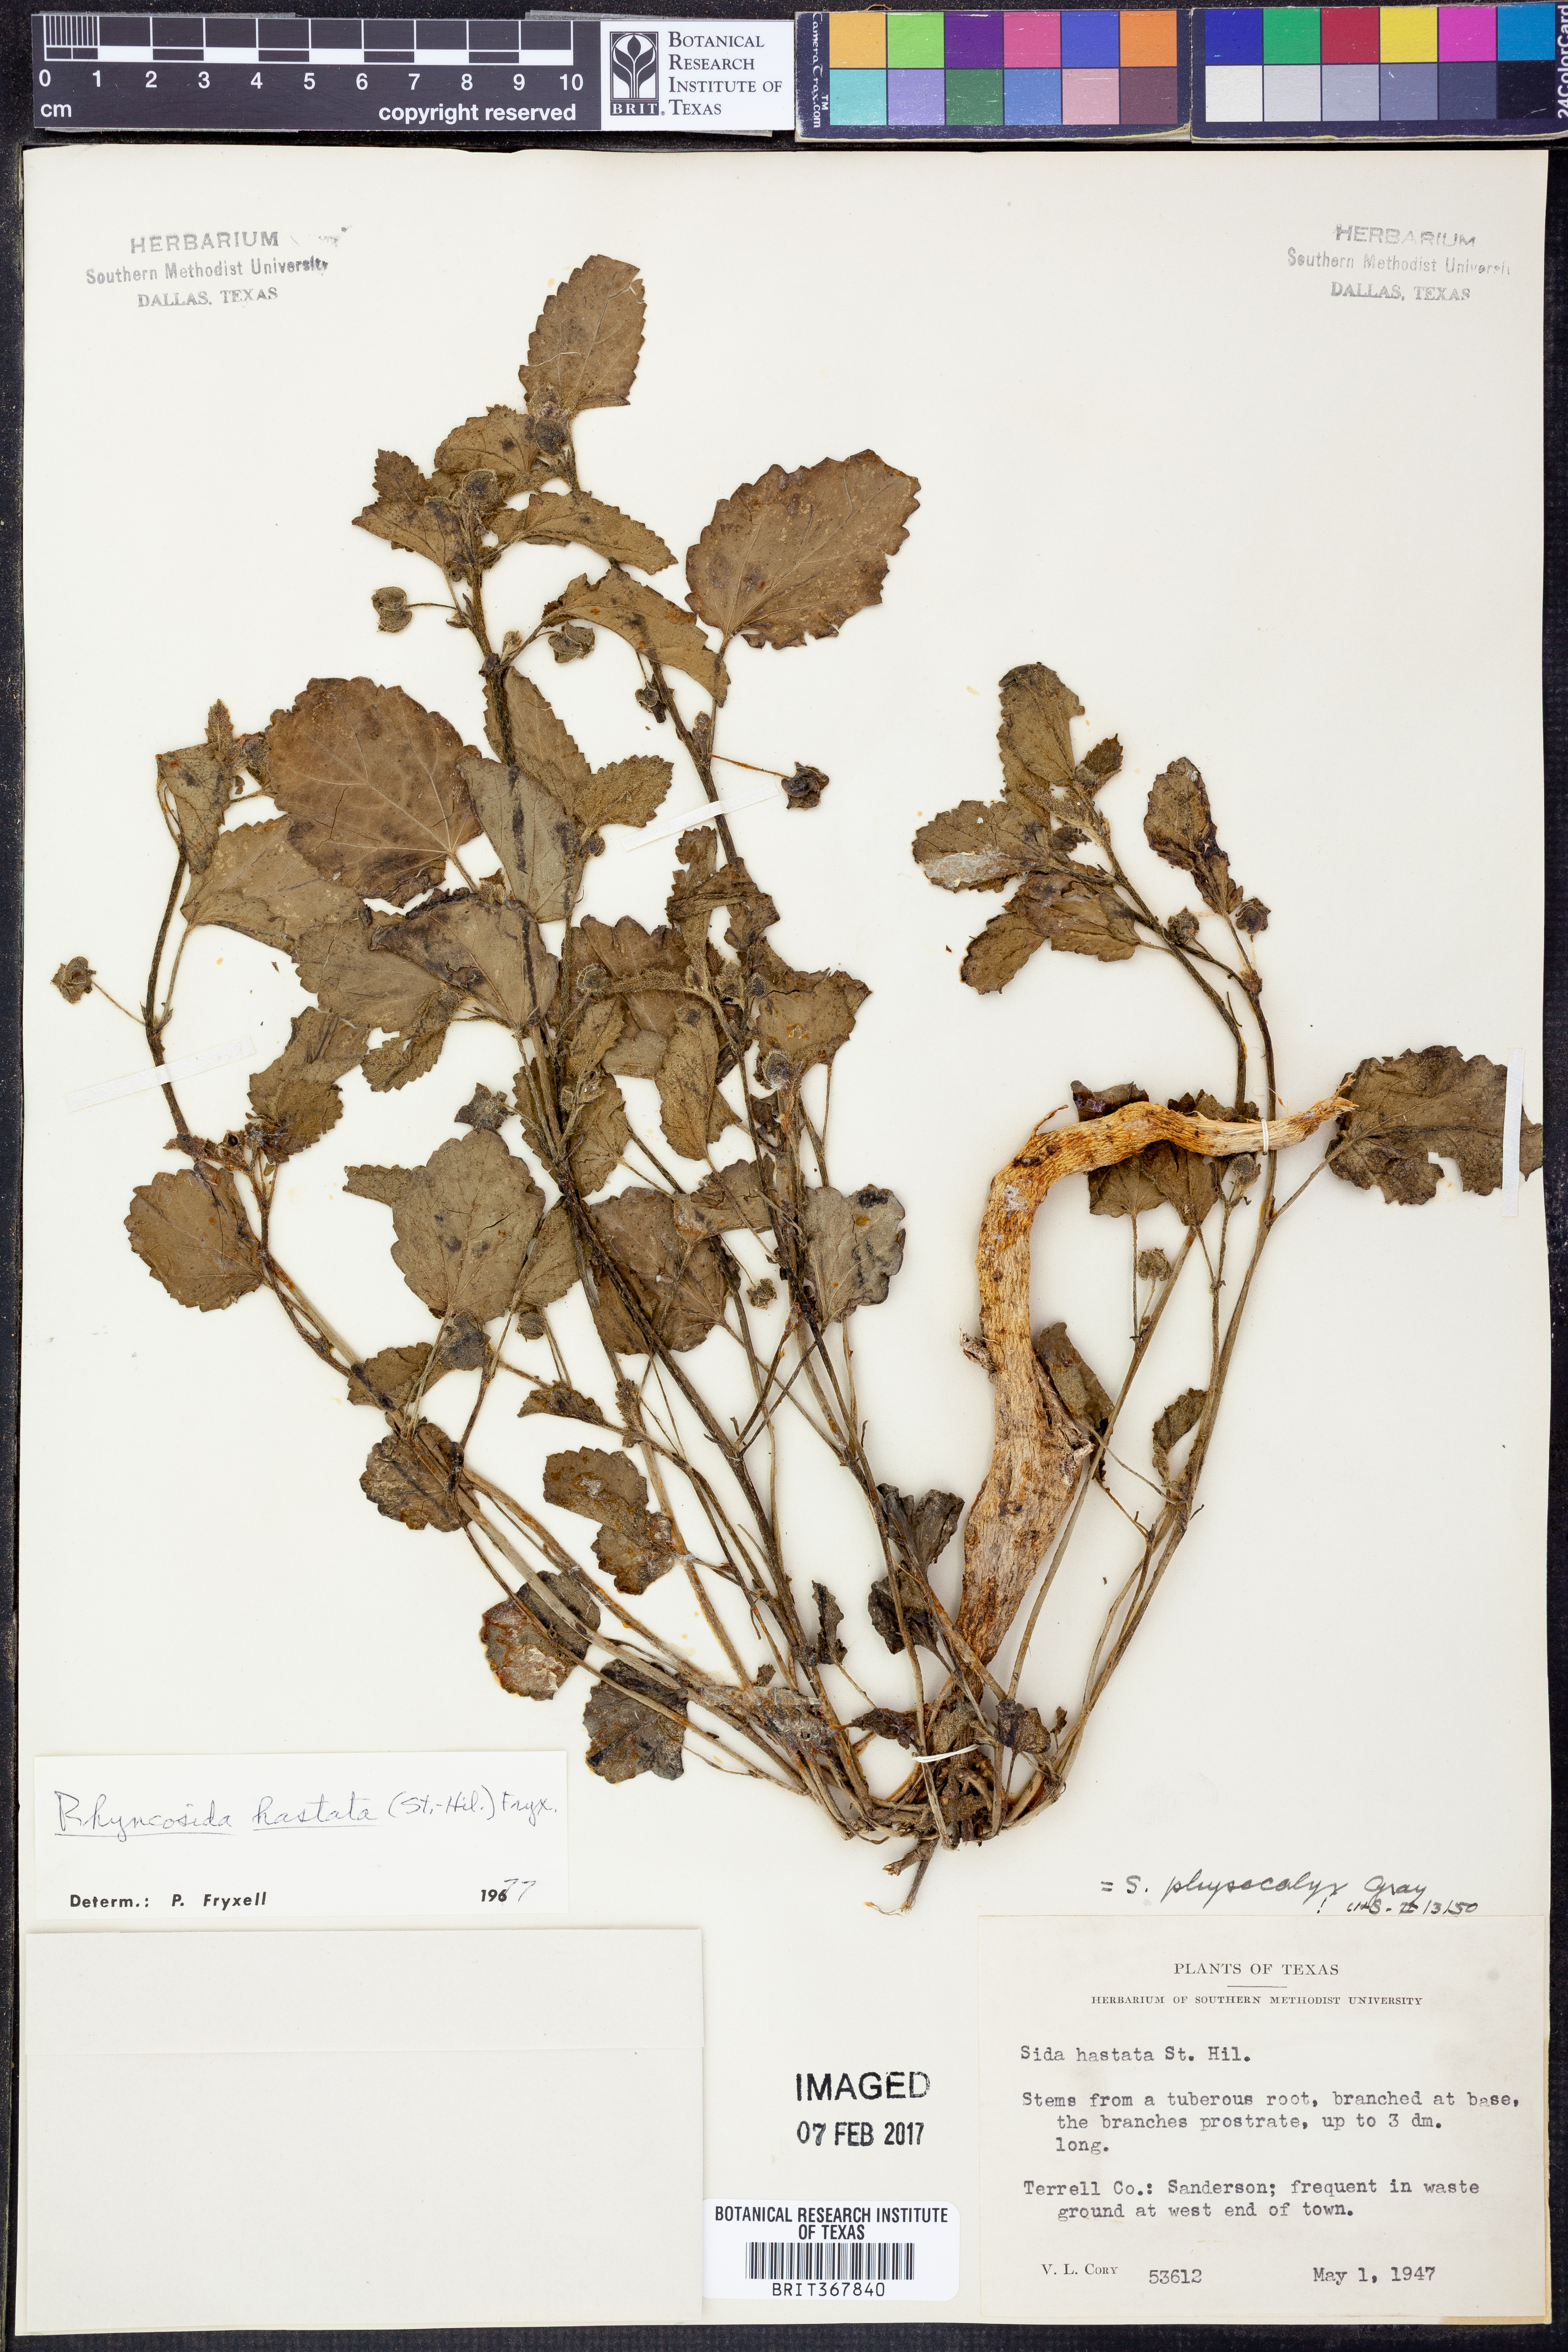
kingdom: Plantae
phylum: Tracheophyta
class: Magnoliopsida
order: Malvales
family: Malvaceae
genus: Rhynchosida
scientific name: Rhynchosida
